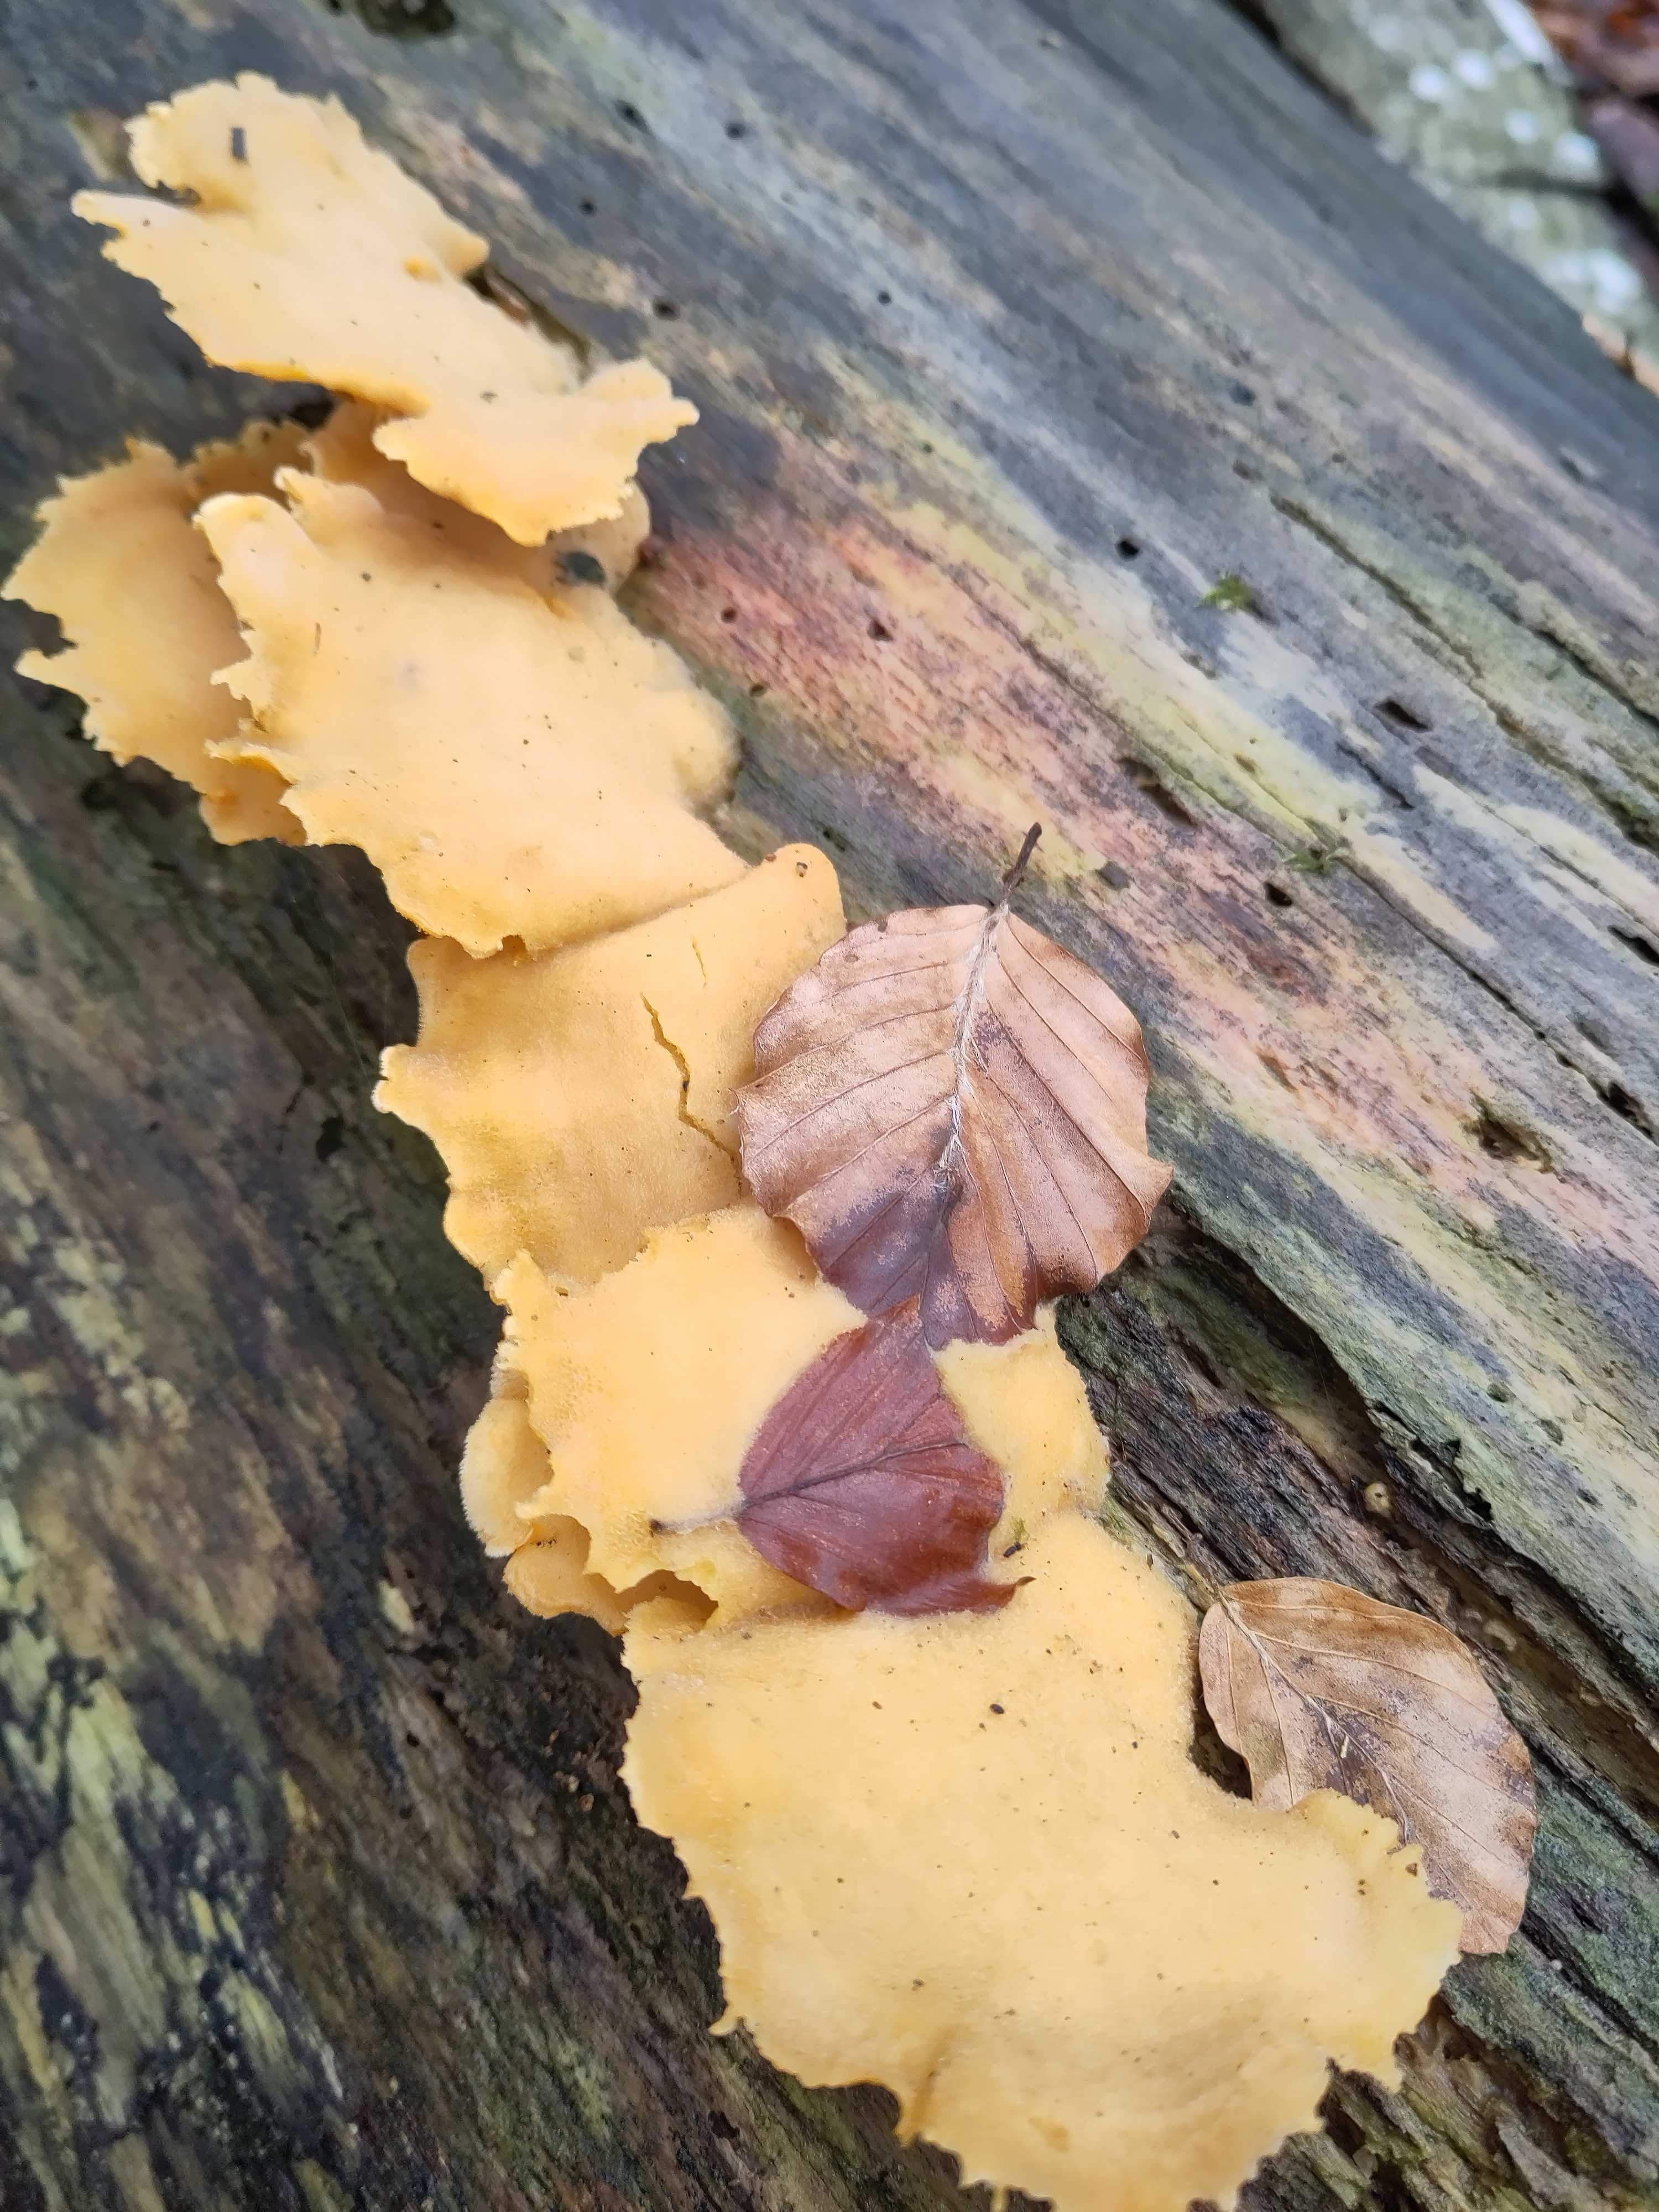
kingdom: Fungi
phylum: Basidiomycota
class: Agaricomycetes
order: Agaricales
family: Phyllotopsidaceae
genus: Phyllotopsis
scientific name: Phyllotopsis nidulans
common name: okkerblad
